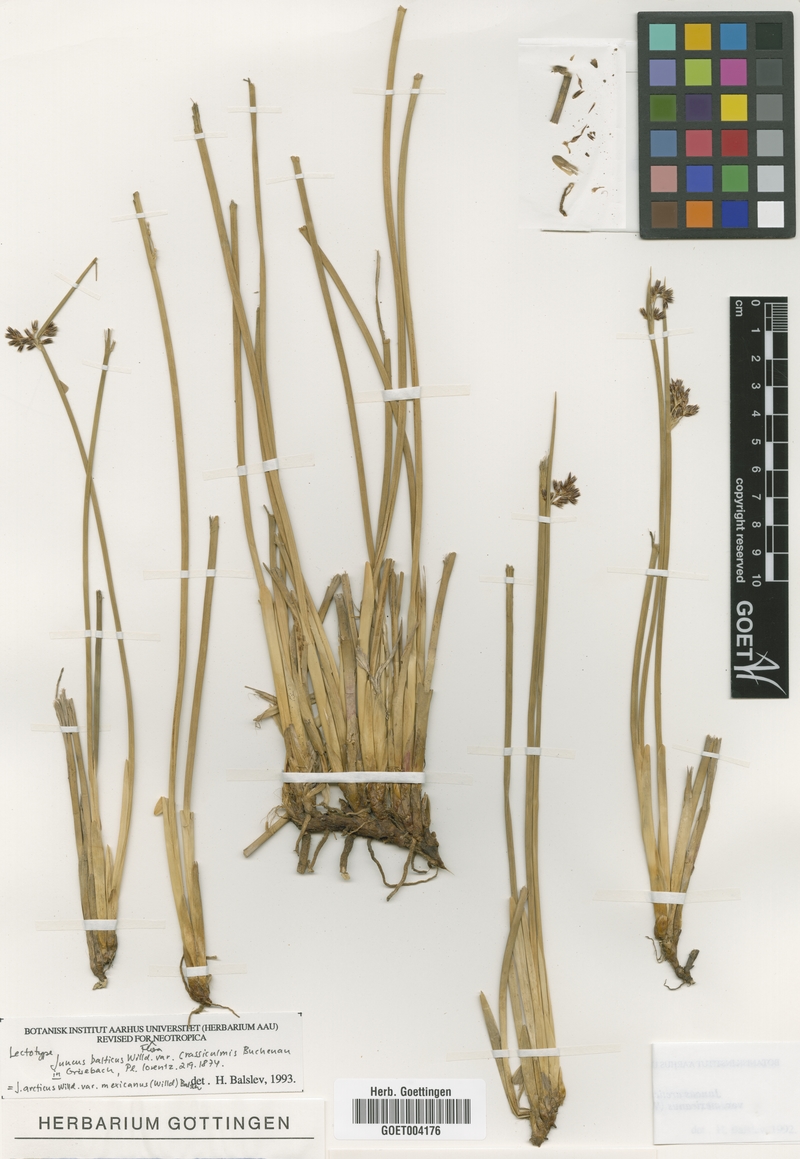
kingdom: Plantae
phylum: Tracheophyta
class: Liliopsida
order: Poales
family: Juncaceae
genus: Juncus
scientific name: Juncus balticus
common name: Baltic rush
